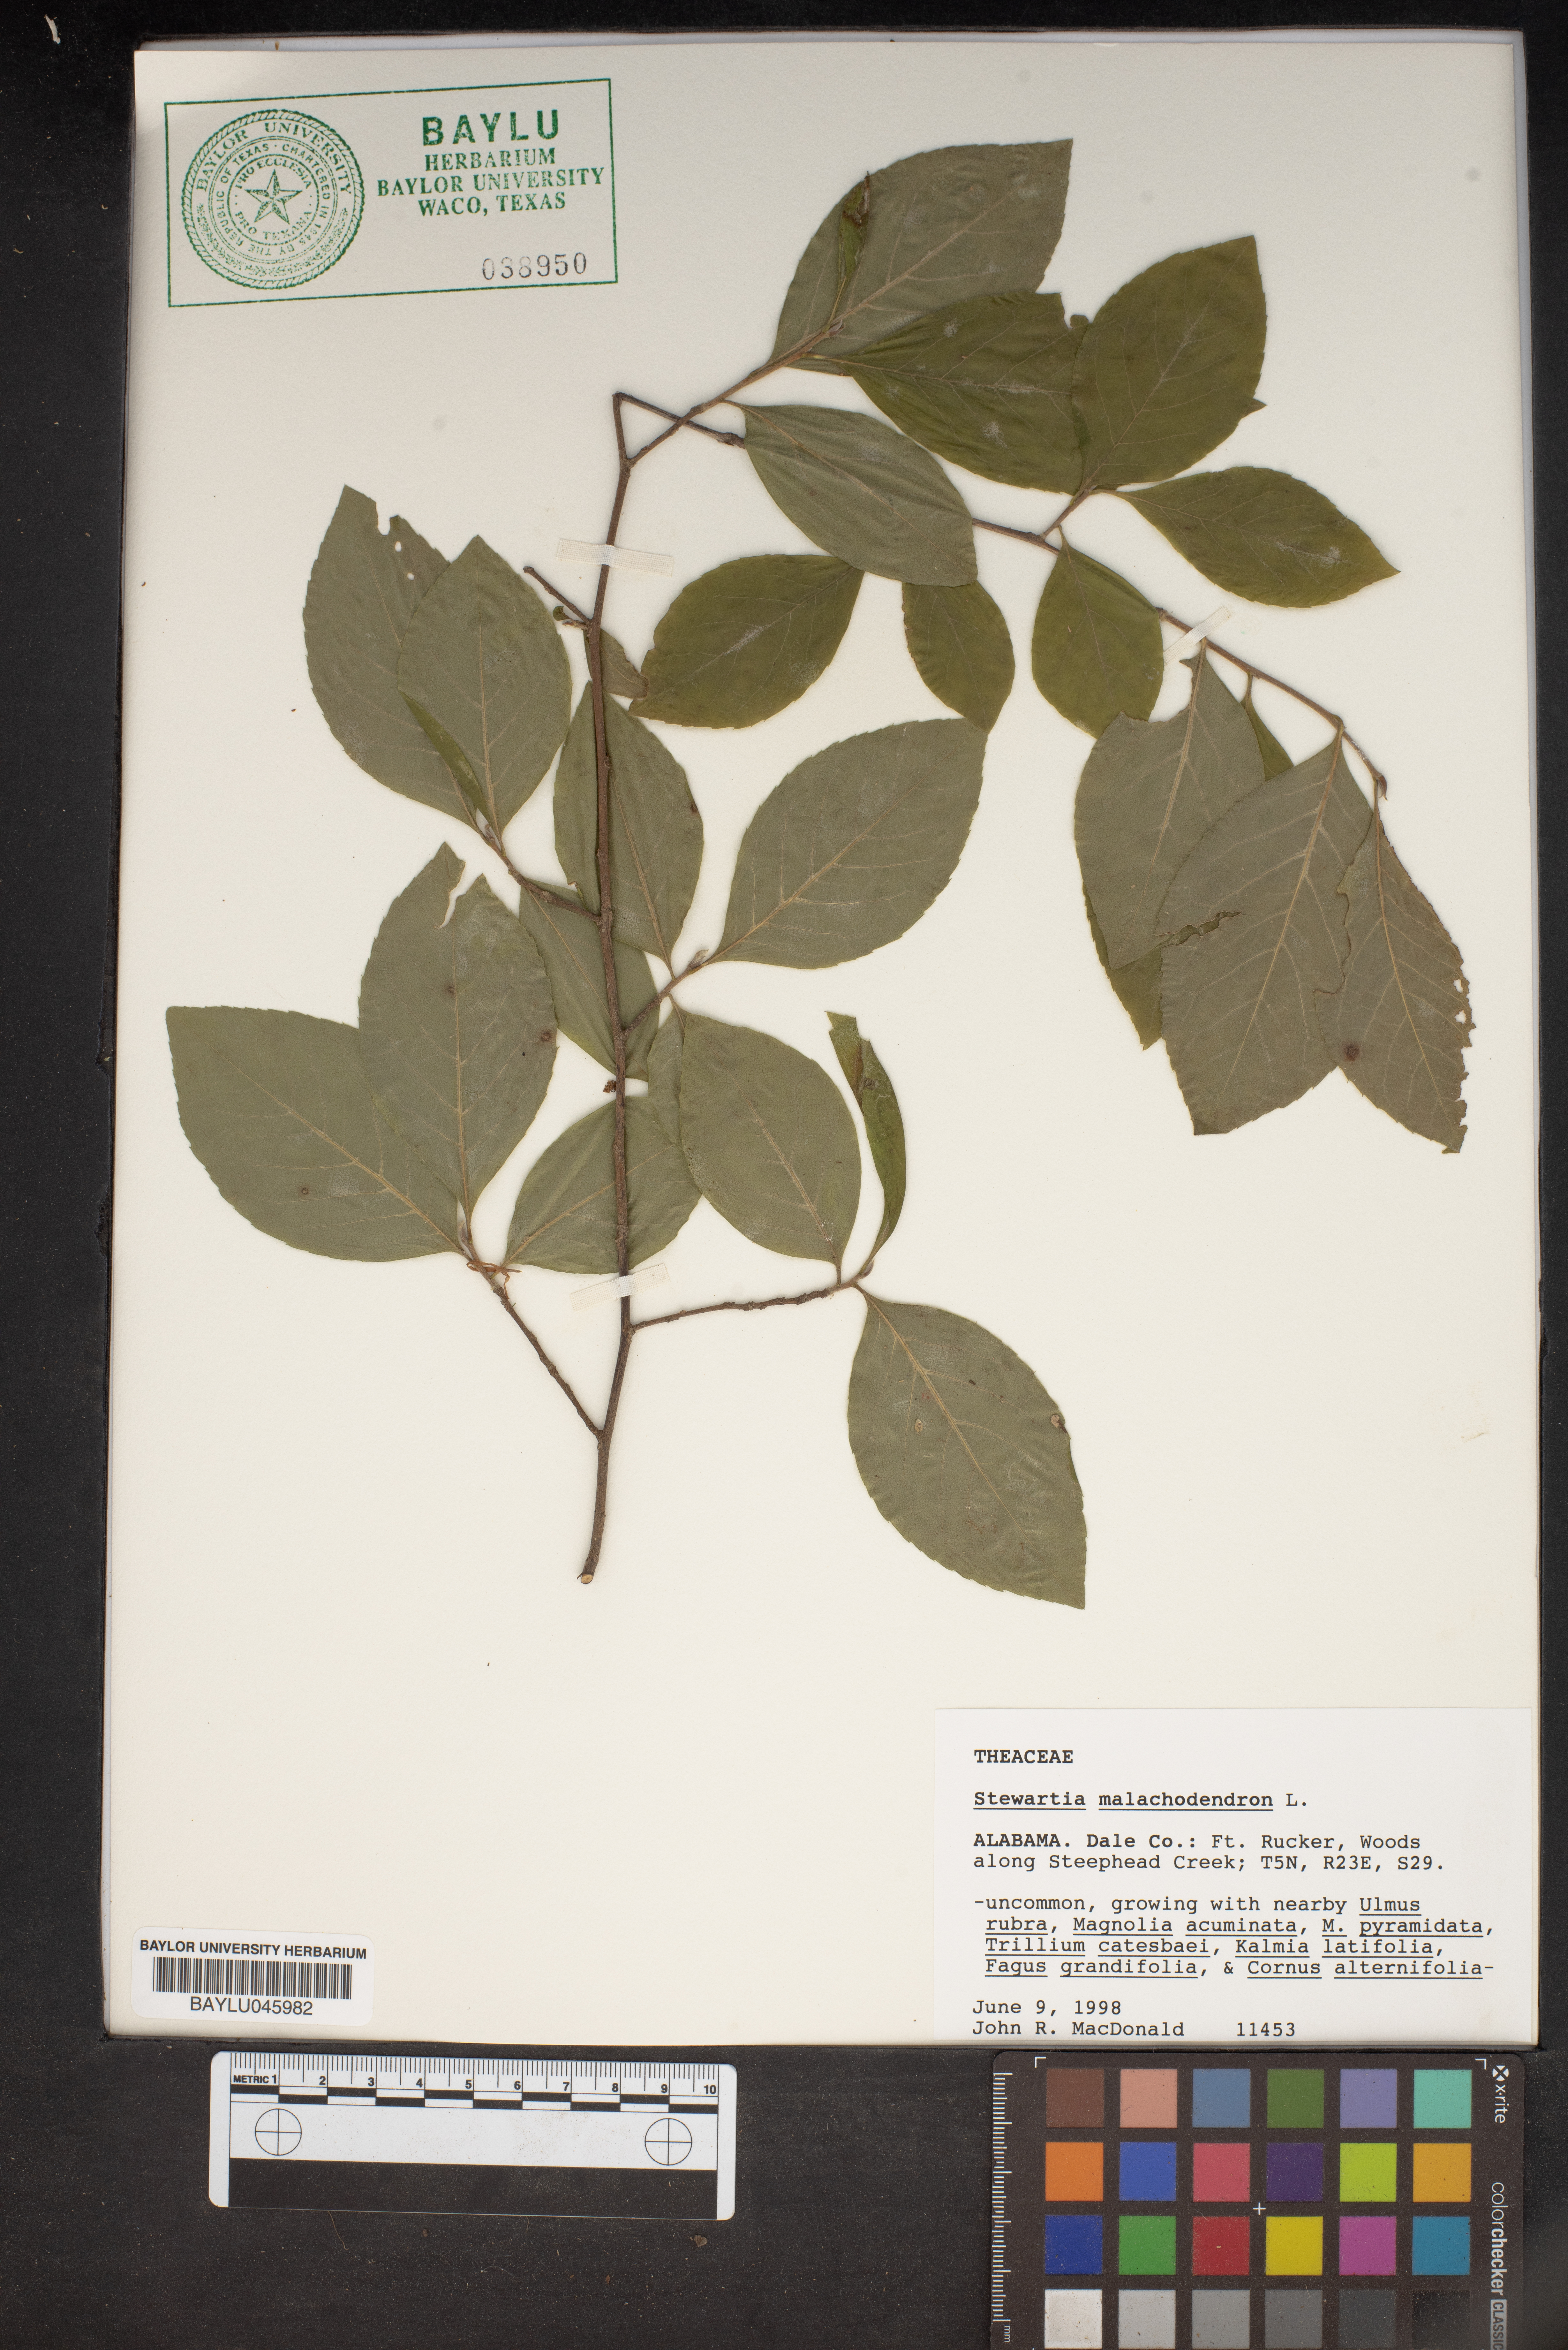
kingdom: Plantae
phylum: Tracheophyta
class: Magnoliopsida
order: Ericales
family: Theaceae
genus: Stewartia
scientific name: Stewartia malacodendron
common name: Virginia stewartia
